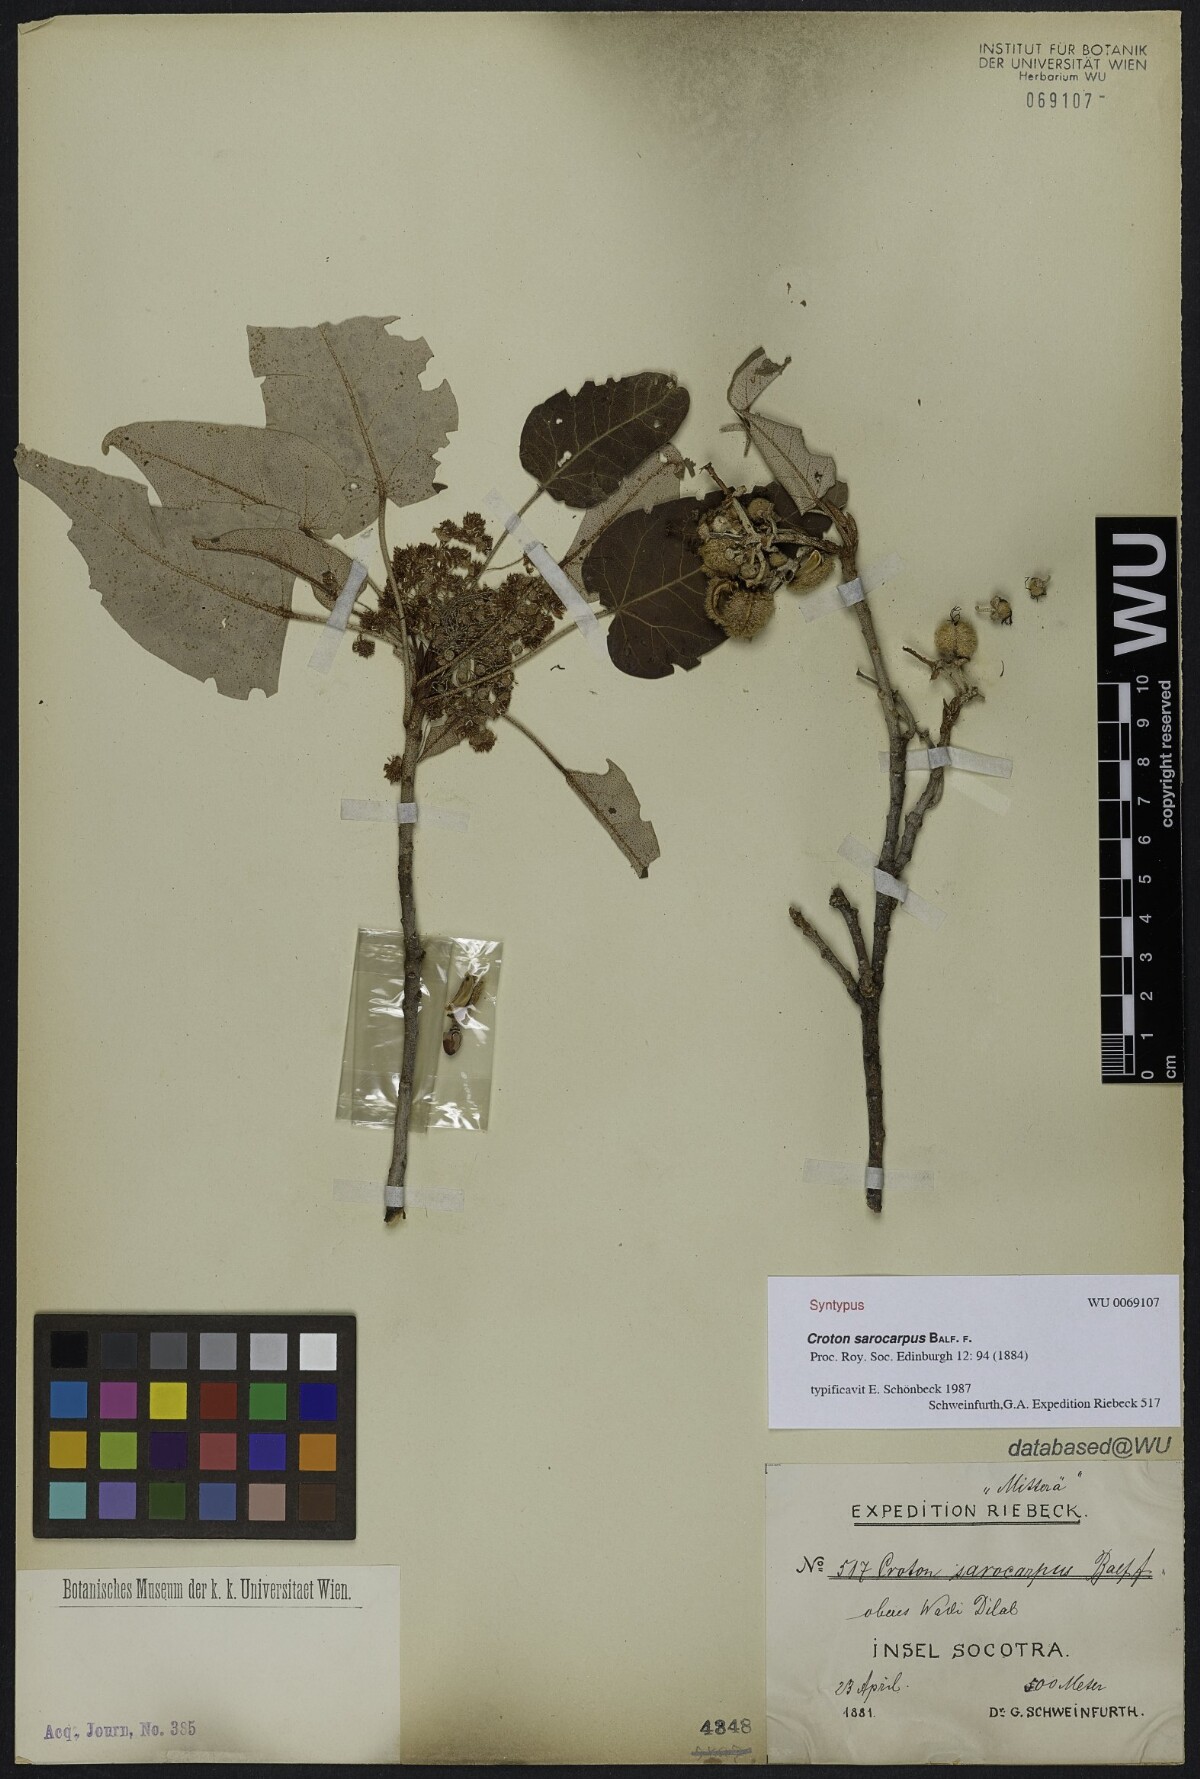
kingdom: Plantae
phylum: Tracheophyta
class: Magnoliopsida
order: Malpighiales
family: Euphorbiaceae
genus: Croton
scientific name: Croton sarocarpus
